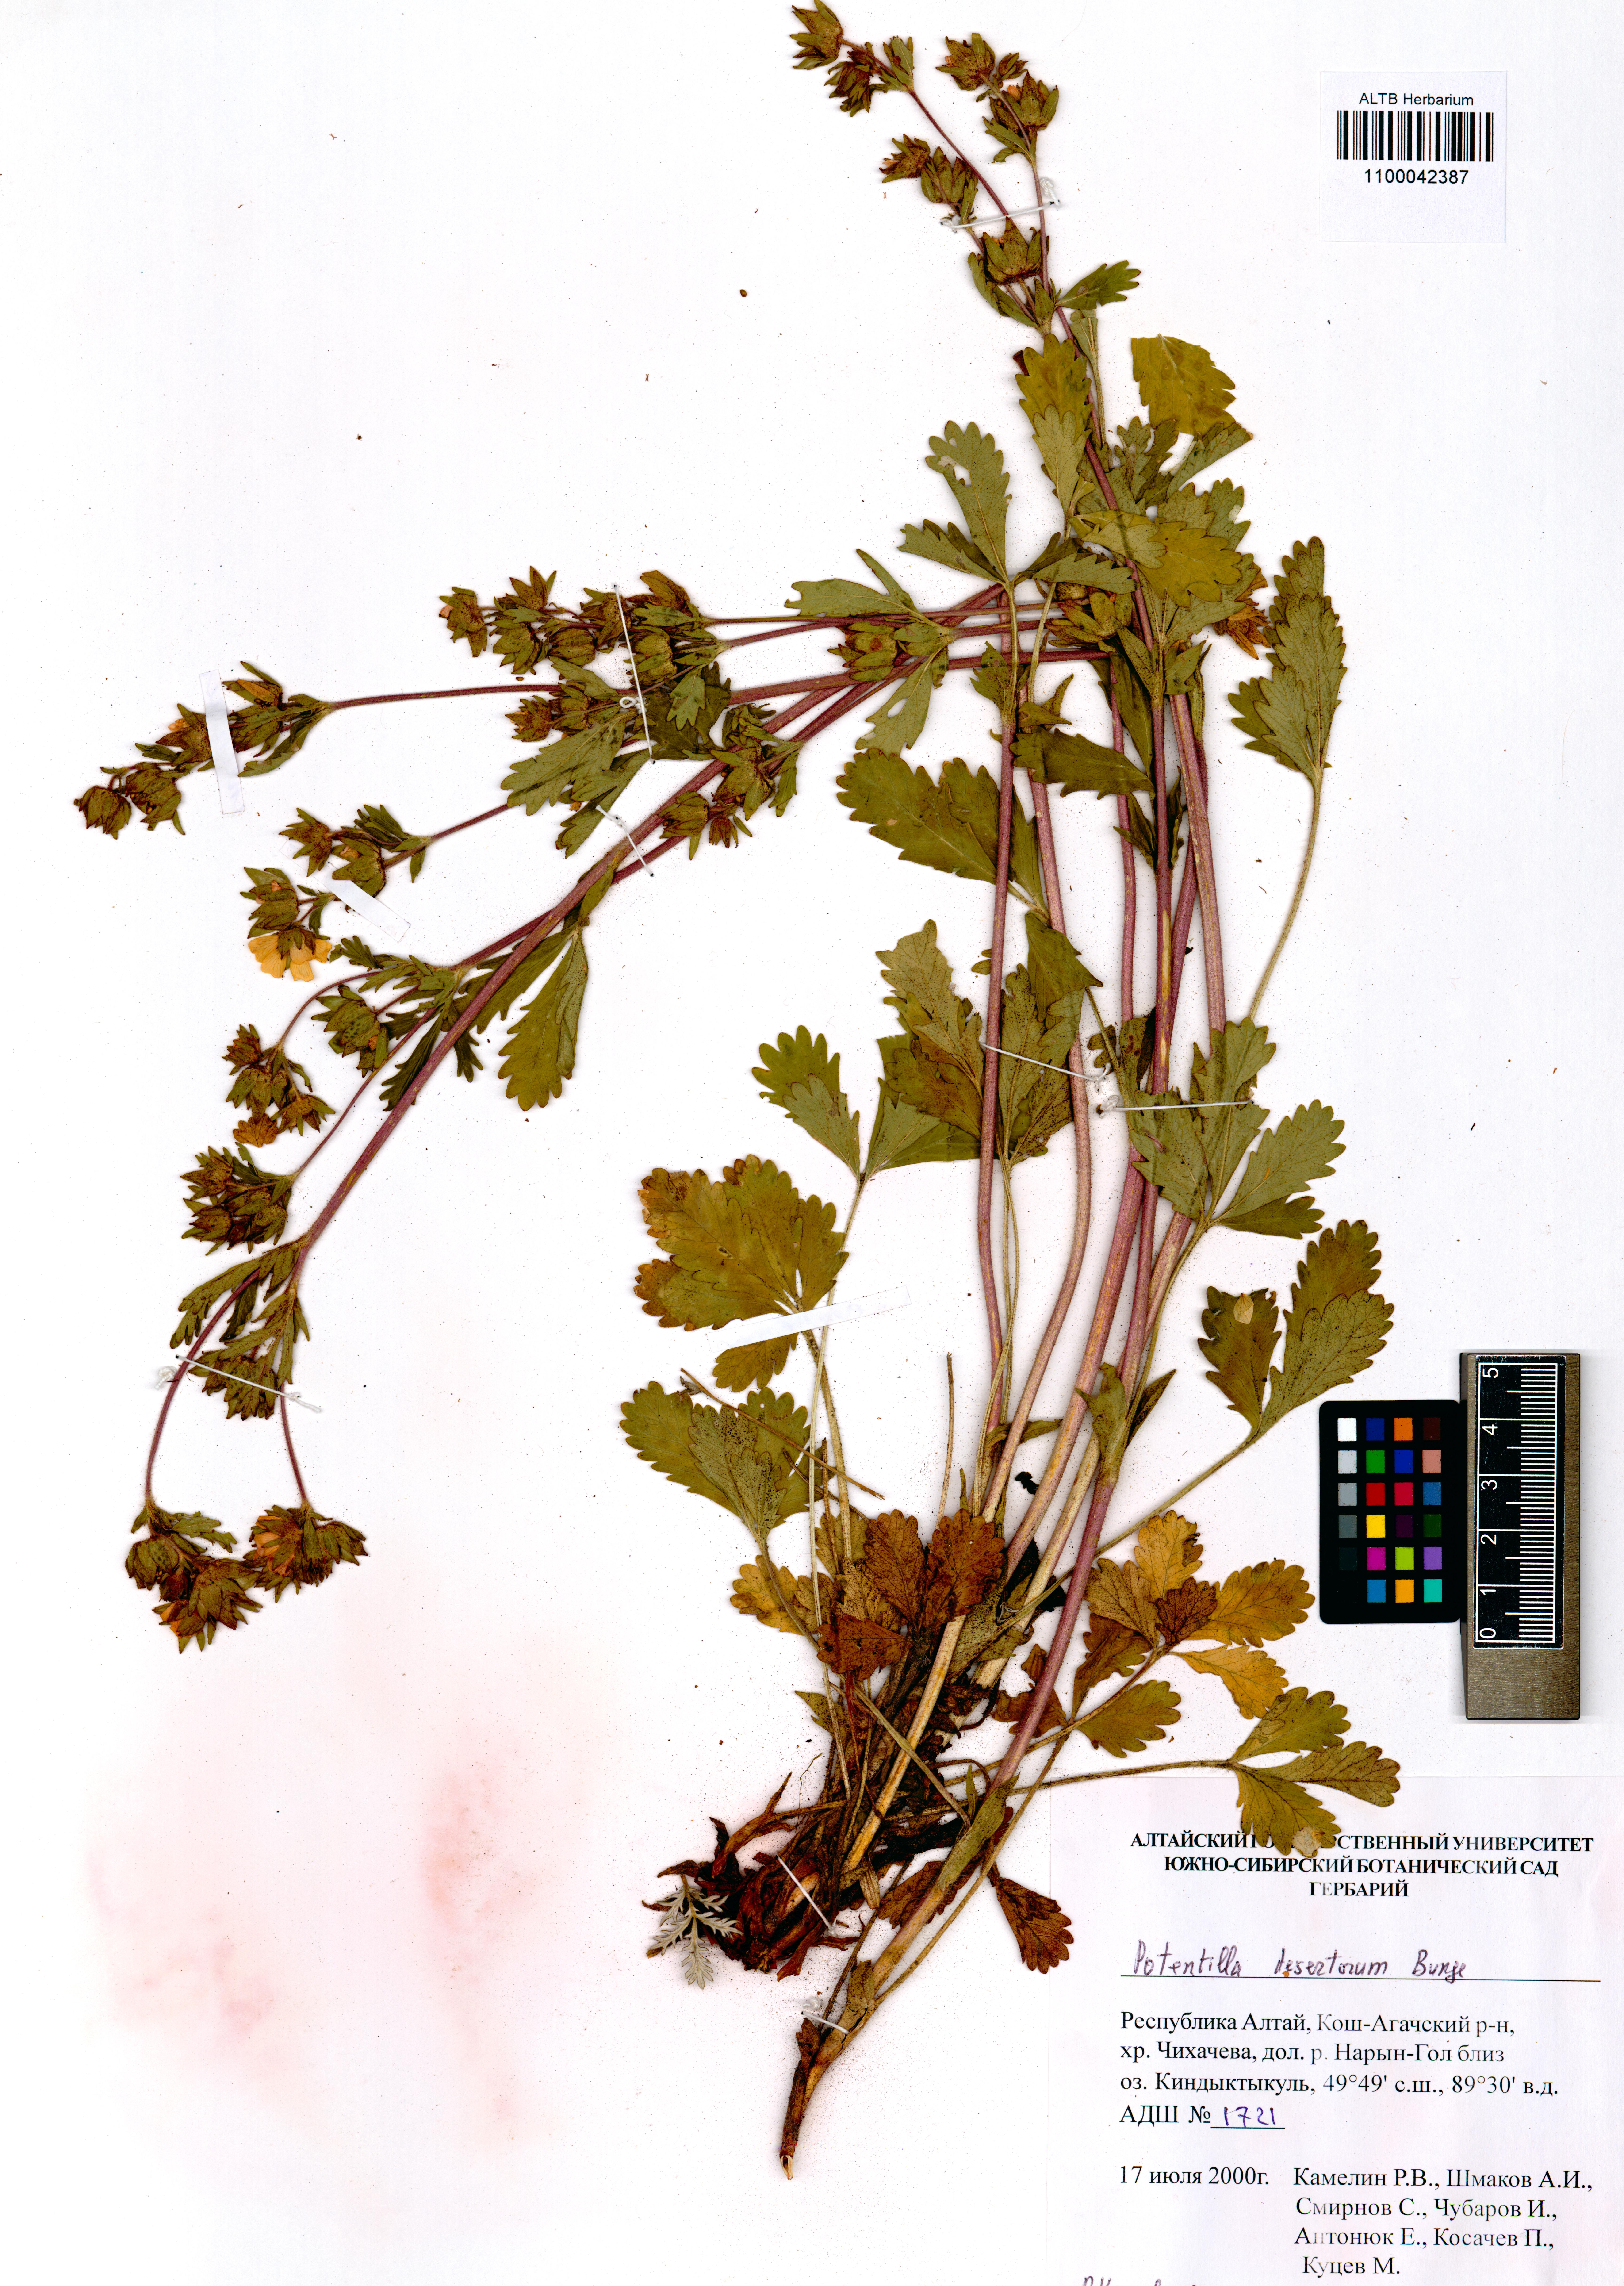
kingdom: Plantae
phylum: Tracheophyta
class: Magnoliopsida
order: Rosales
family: Rosaceae
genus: Potentilla
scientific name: Potentilla desertorum
